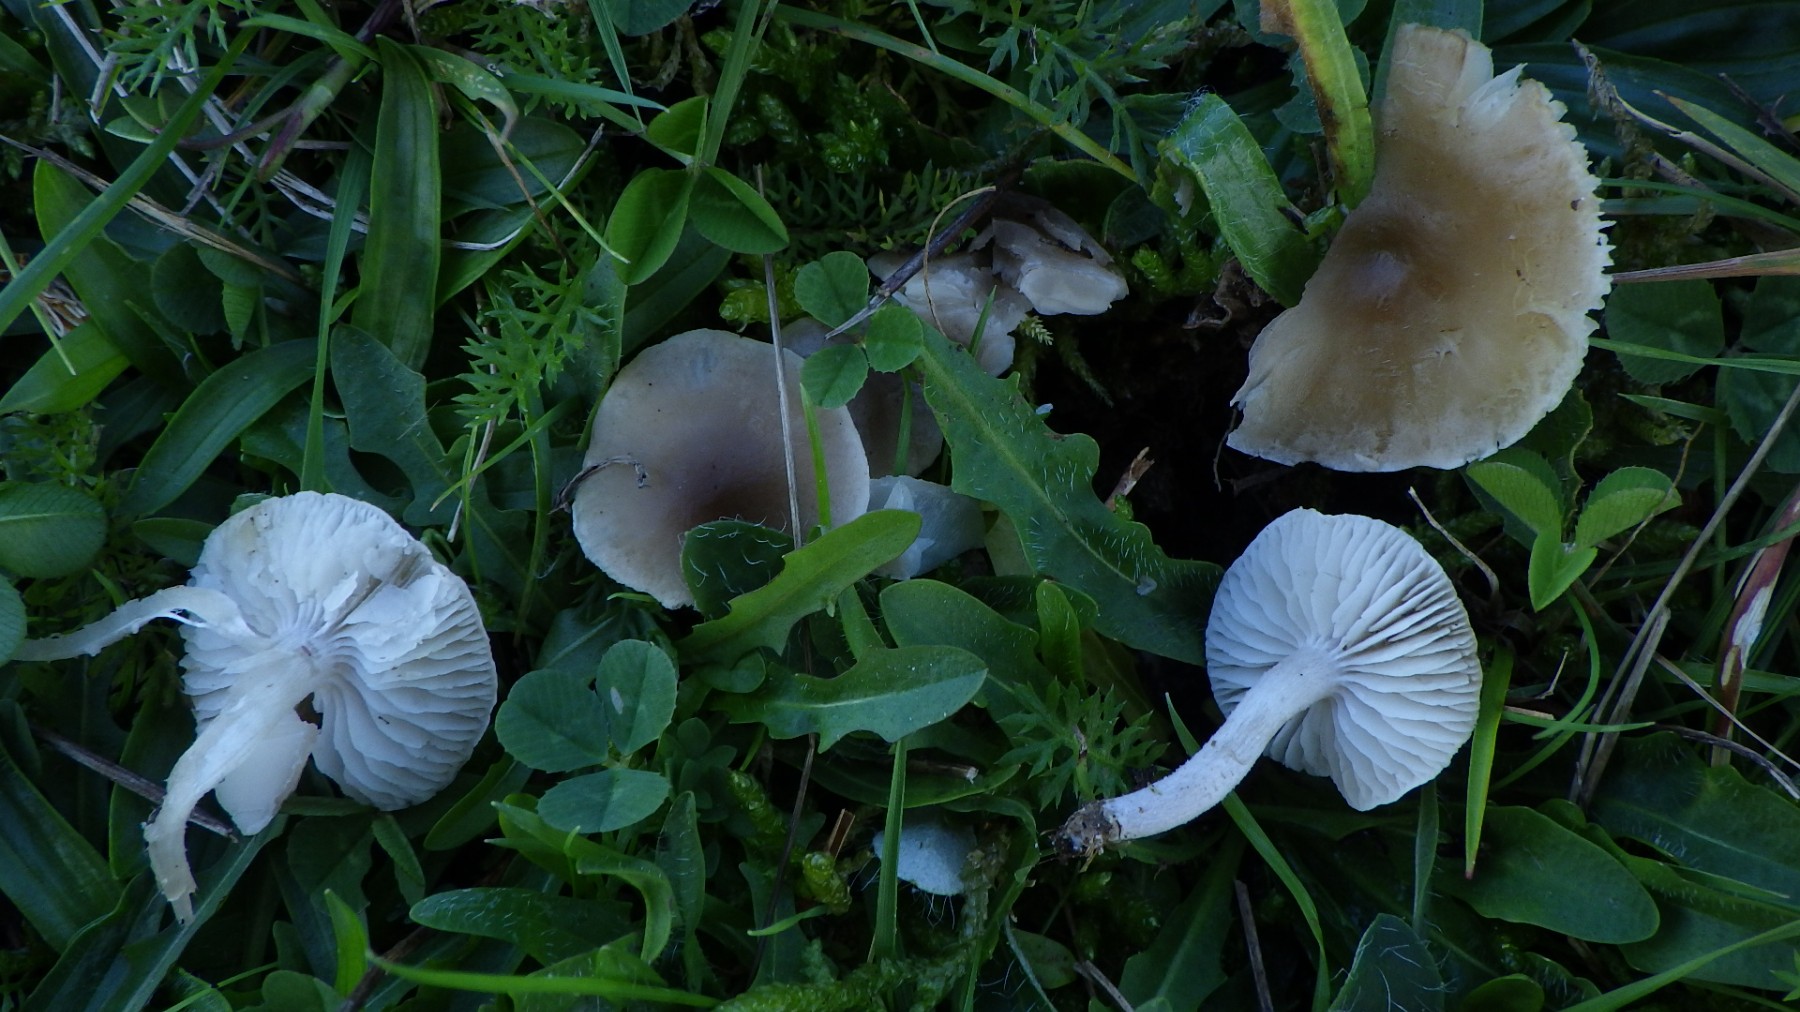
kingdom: Fungi
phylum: Basidiomycota
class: Agaricomycetes
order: Agaricales
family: Tricholomataceae
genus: Dermoloma
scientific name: Dermoloma cuneifolium
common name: eng-nonnehat
